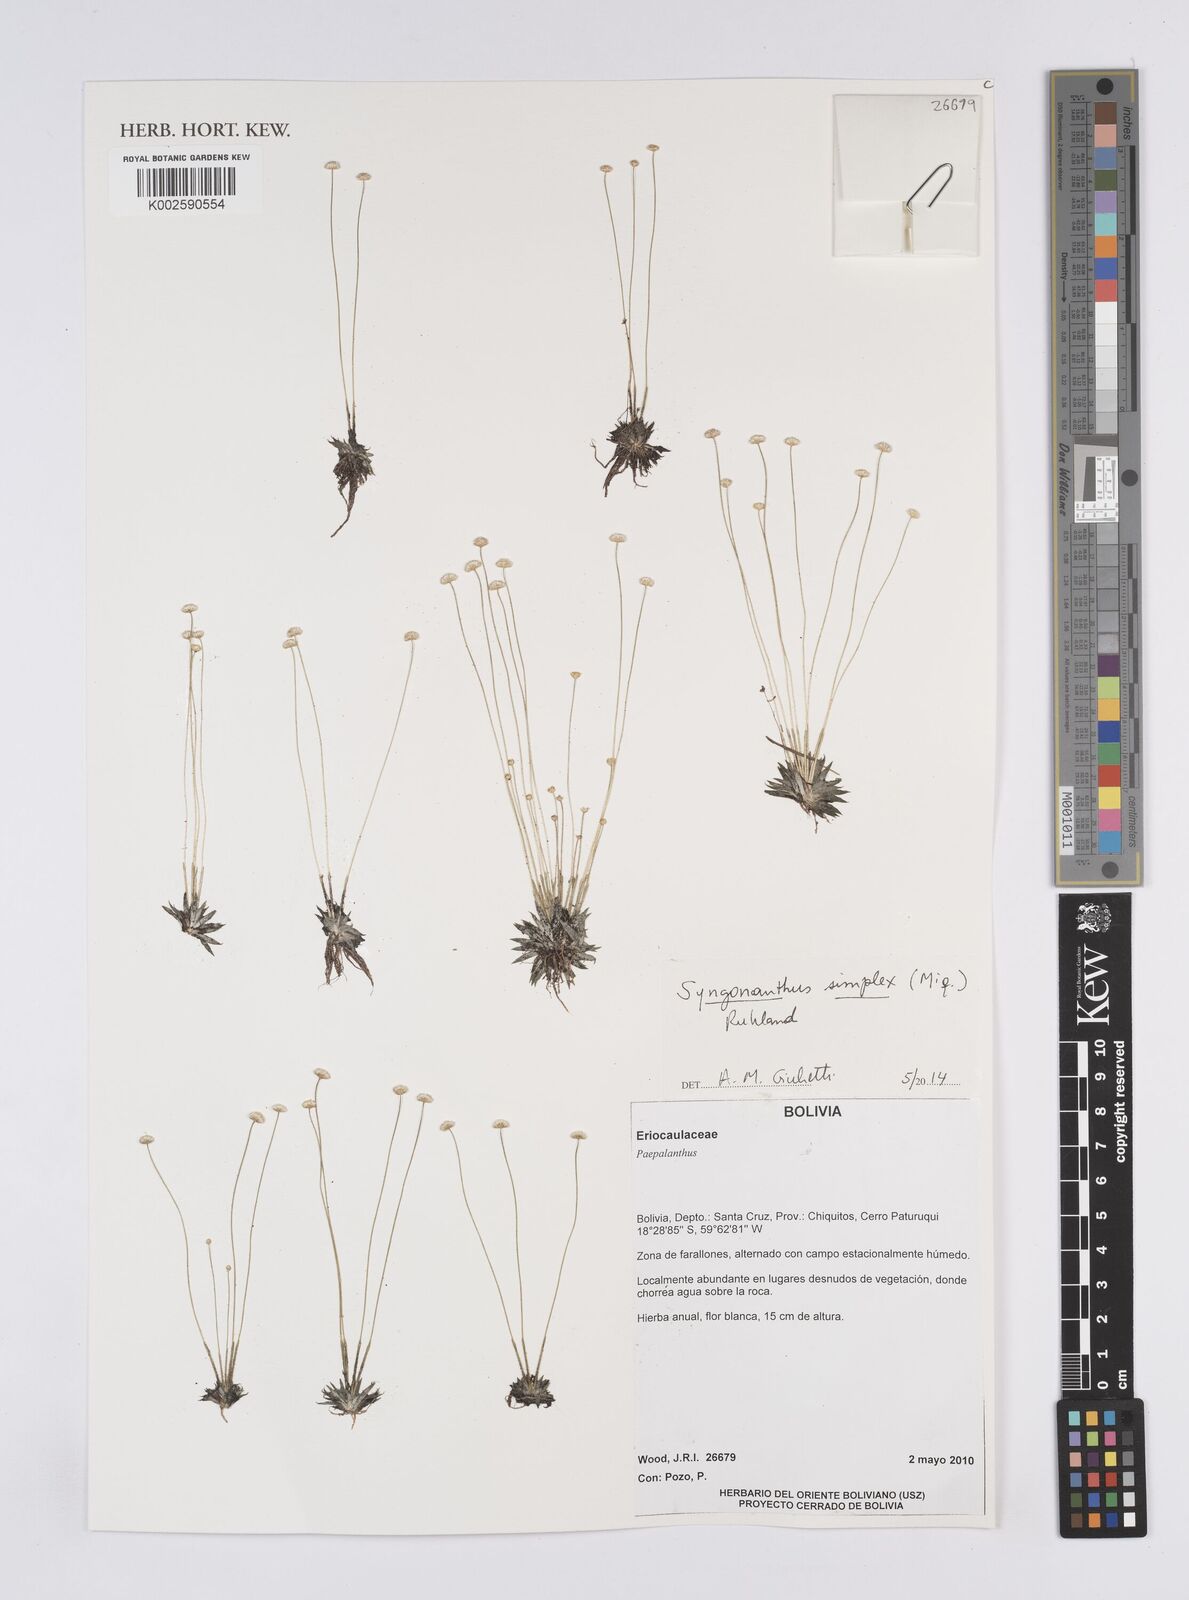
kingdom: Plantae
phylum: Tracheophyta
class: Liliopsida
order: Poales
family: Eriocaulaceae
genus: Syngonanthus
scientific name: Syngonanthus simplex
